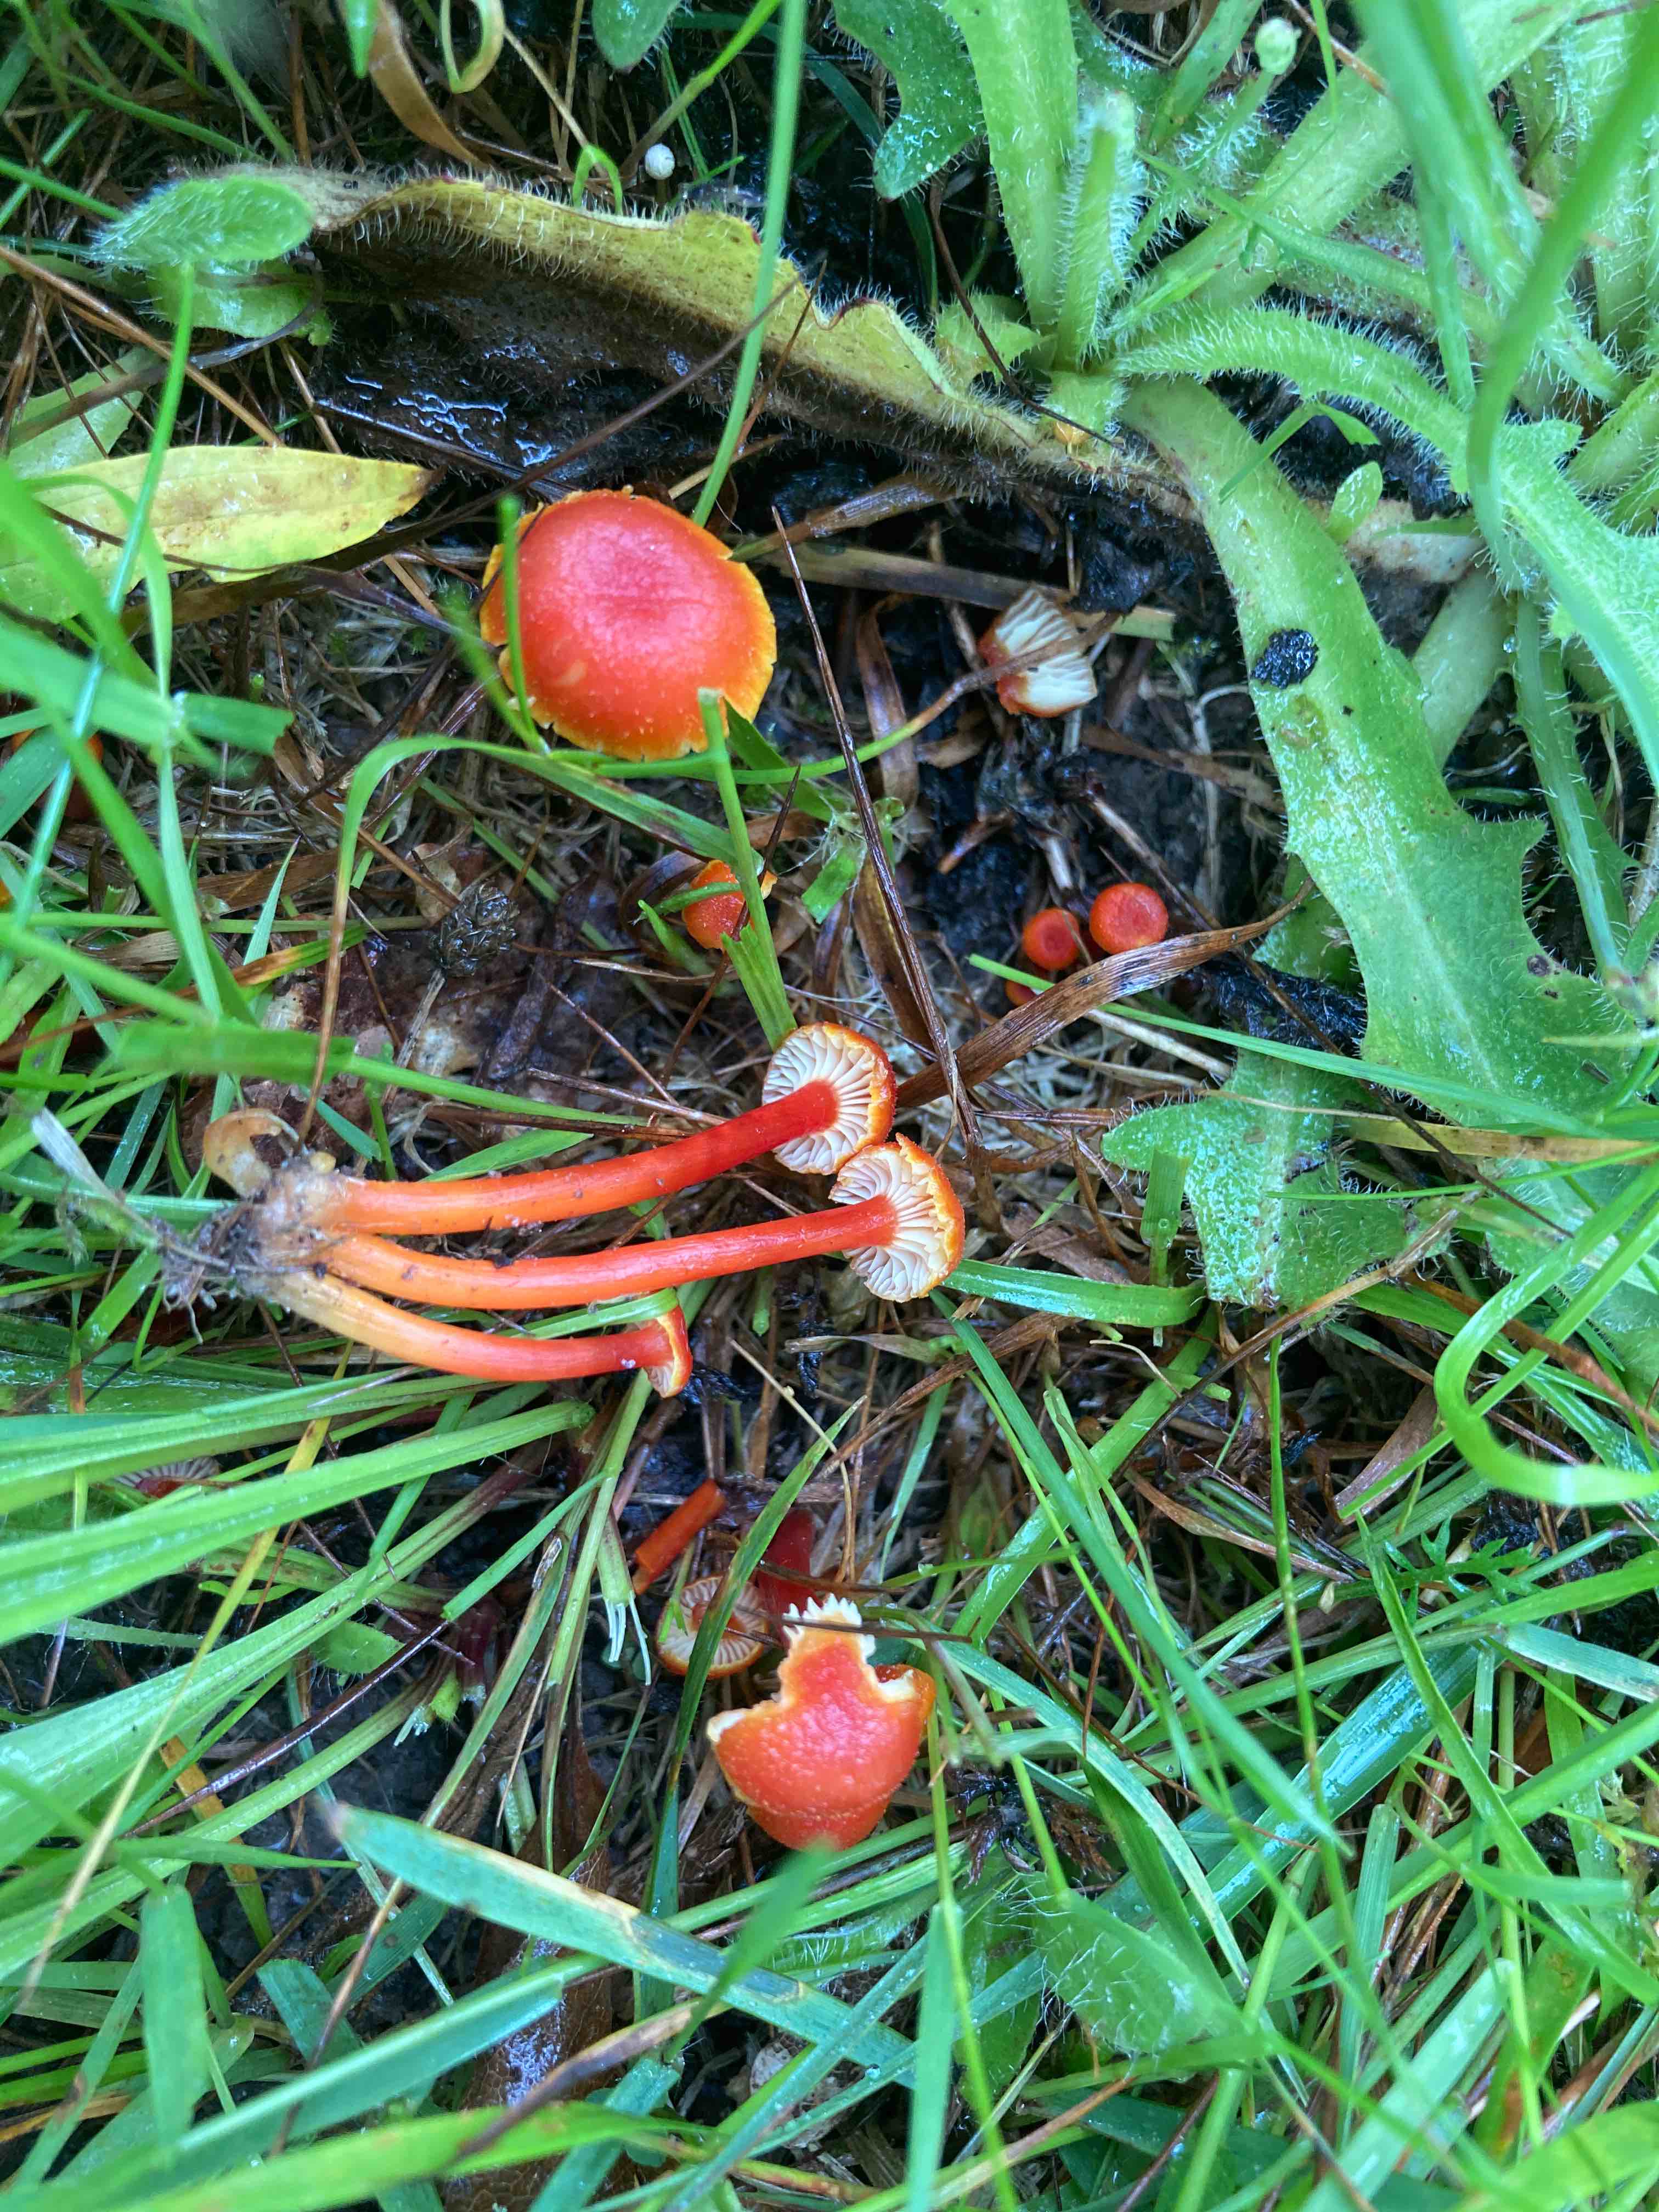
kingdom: Fungi
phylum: Basidiomycota
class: Agaricomycetes
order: Agaricales
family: Hygrophoraceae
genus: Hygrocybe
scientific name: Hygrocybe helobia
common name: hvidløgs-vokshat
